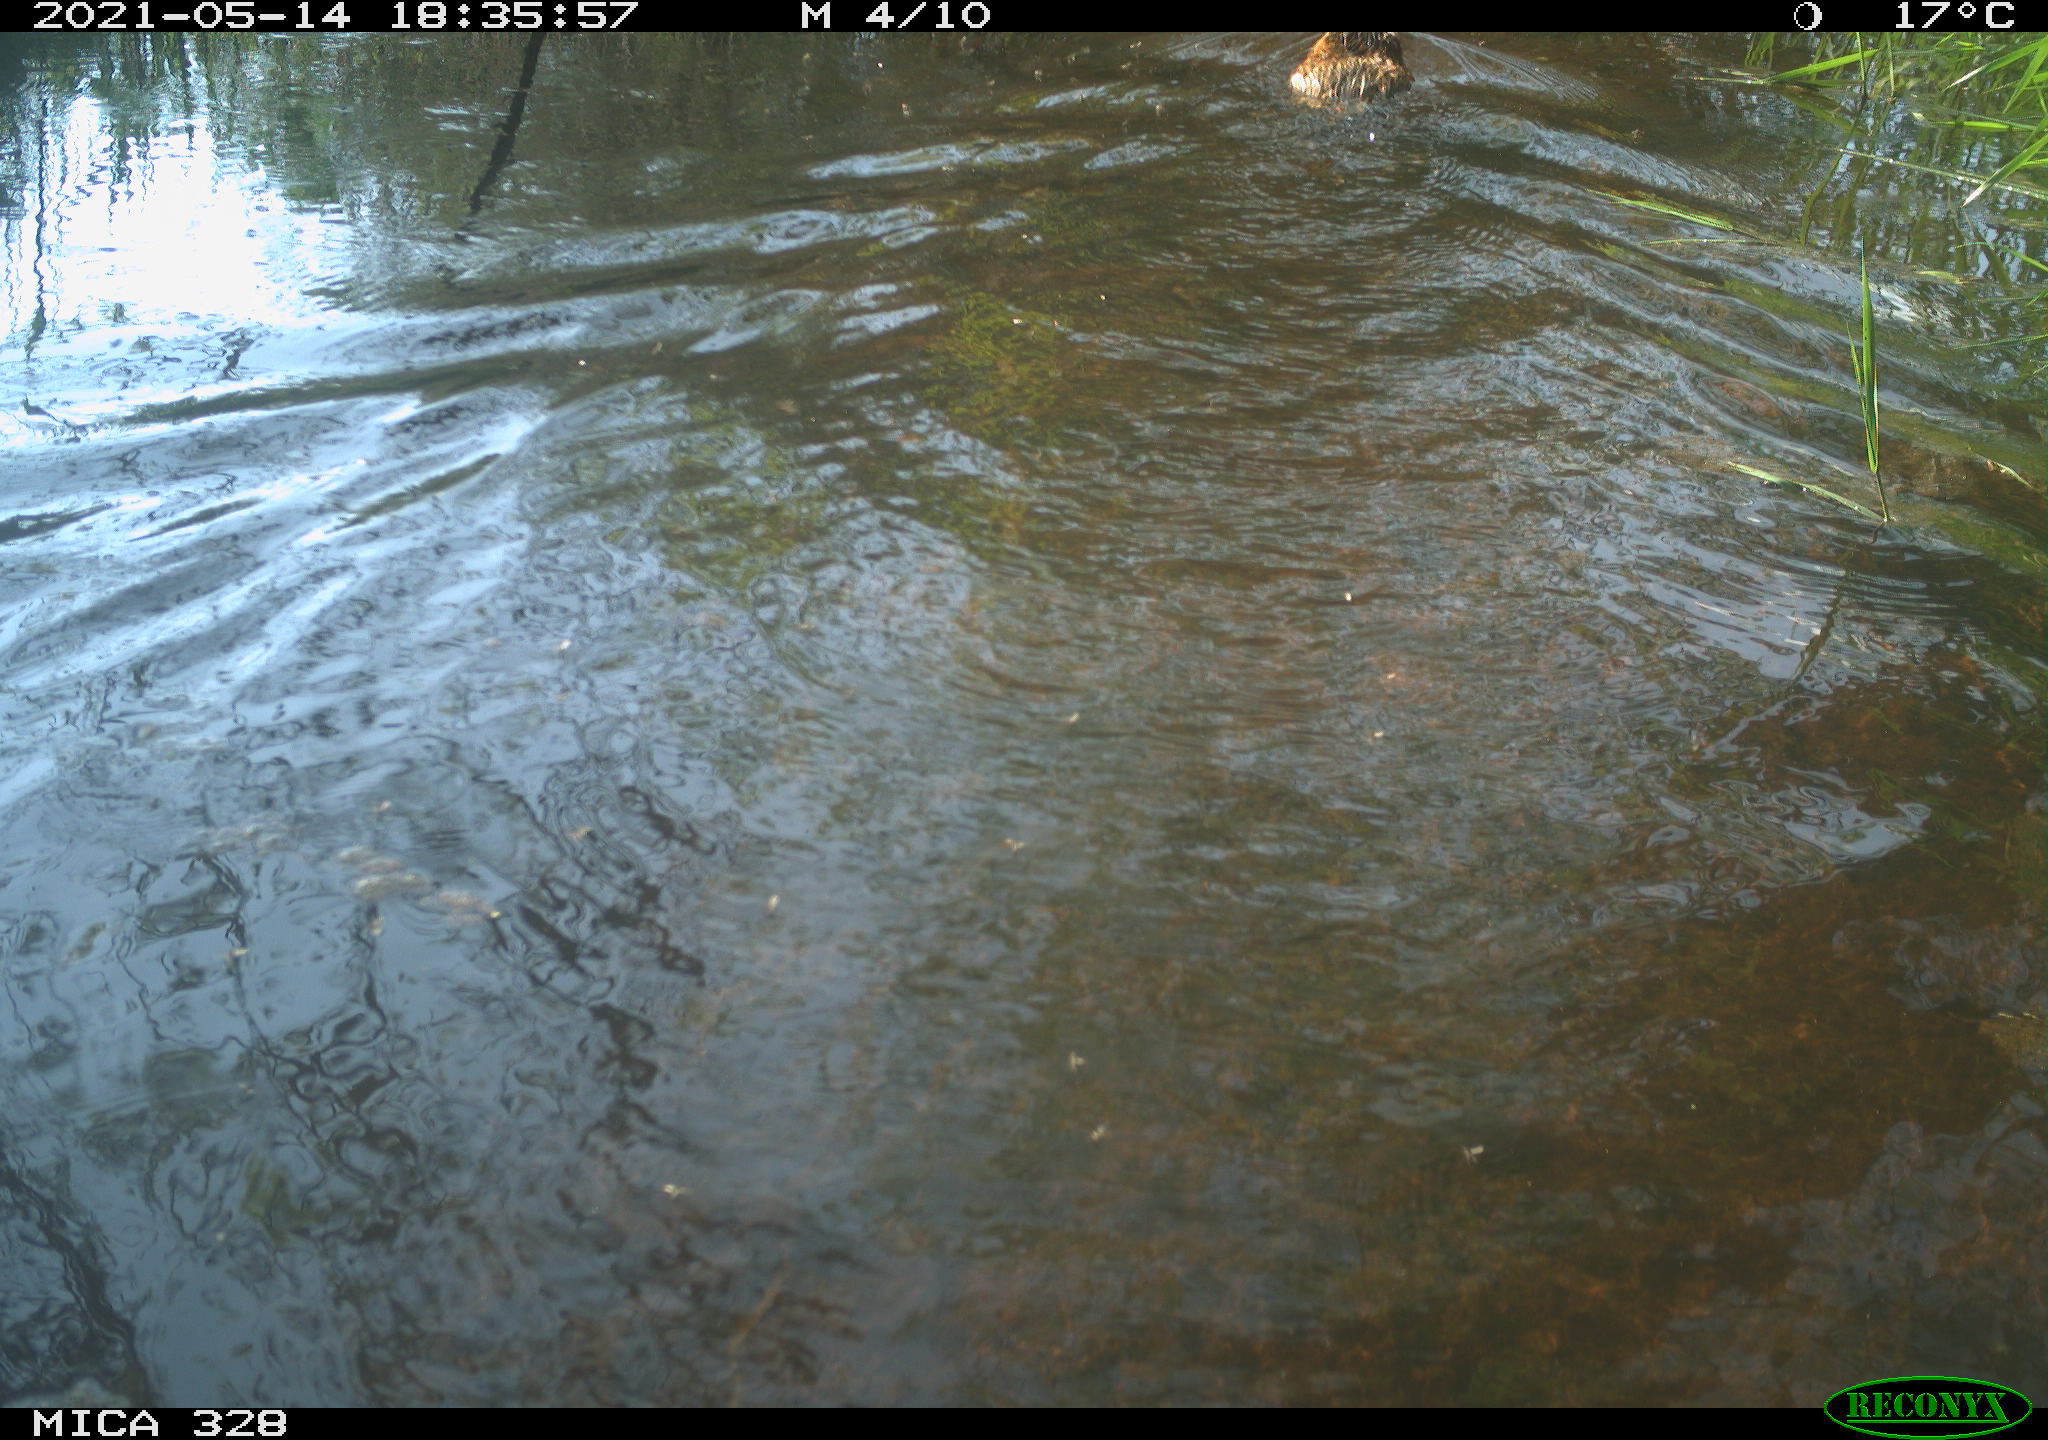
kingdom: Animalia
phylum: Chordata
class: Mammalia
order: Rodentia
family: Cricetidae
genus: Ondatra
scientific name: Ondatra zibethicus
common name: Muskrat
